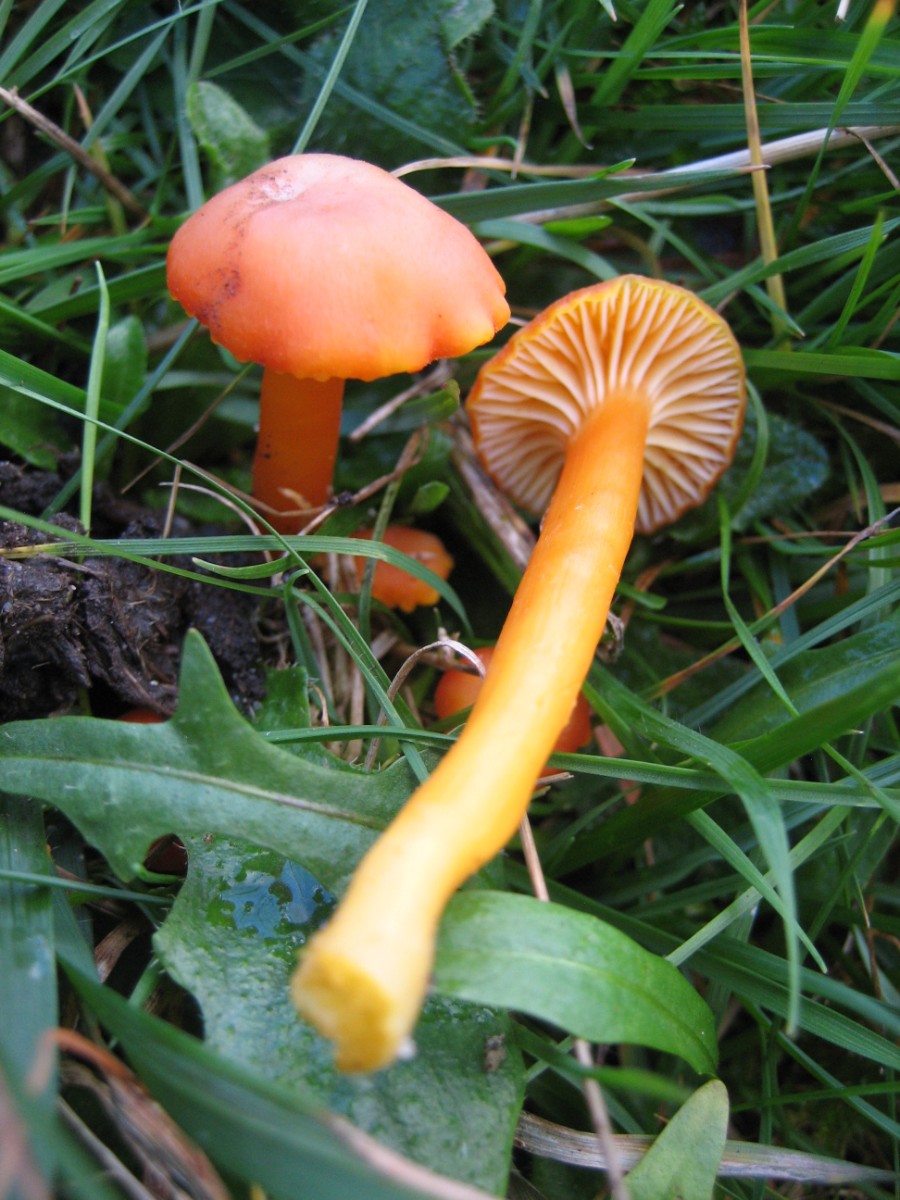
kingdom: Fungi
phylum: Basidiomycota
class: Agaricomycetes
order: Agaricales
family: Hygrophoraceae
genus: Gliophorus
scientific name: Gliophorus
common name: vokshat
